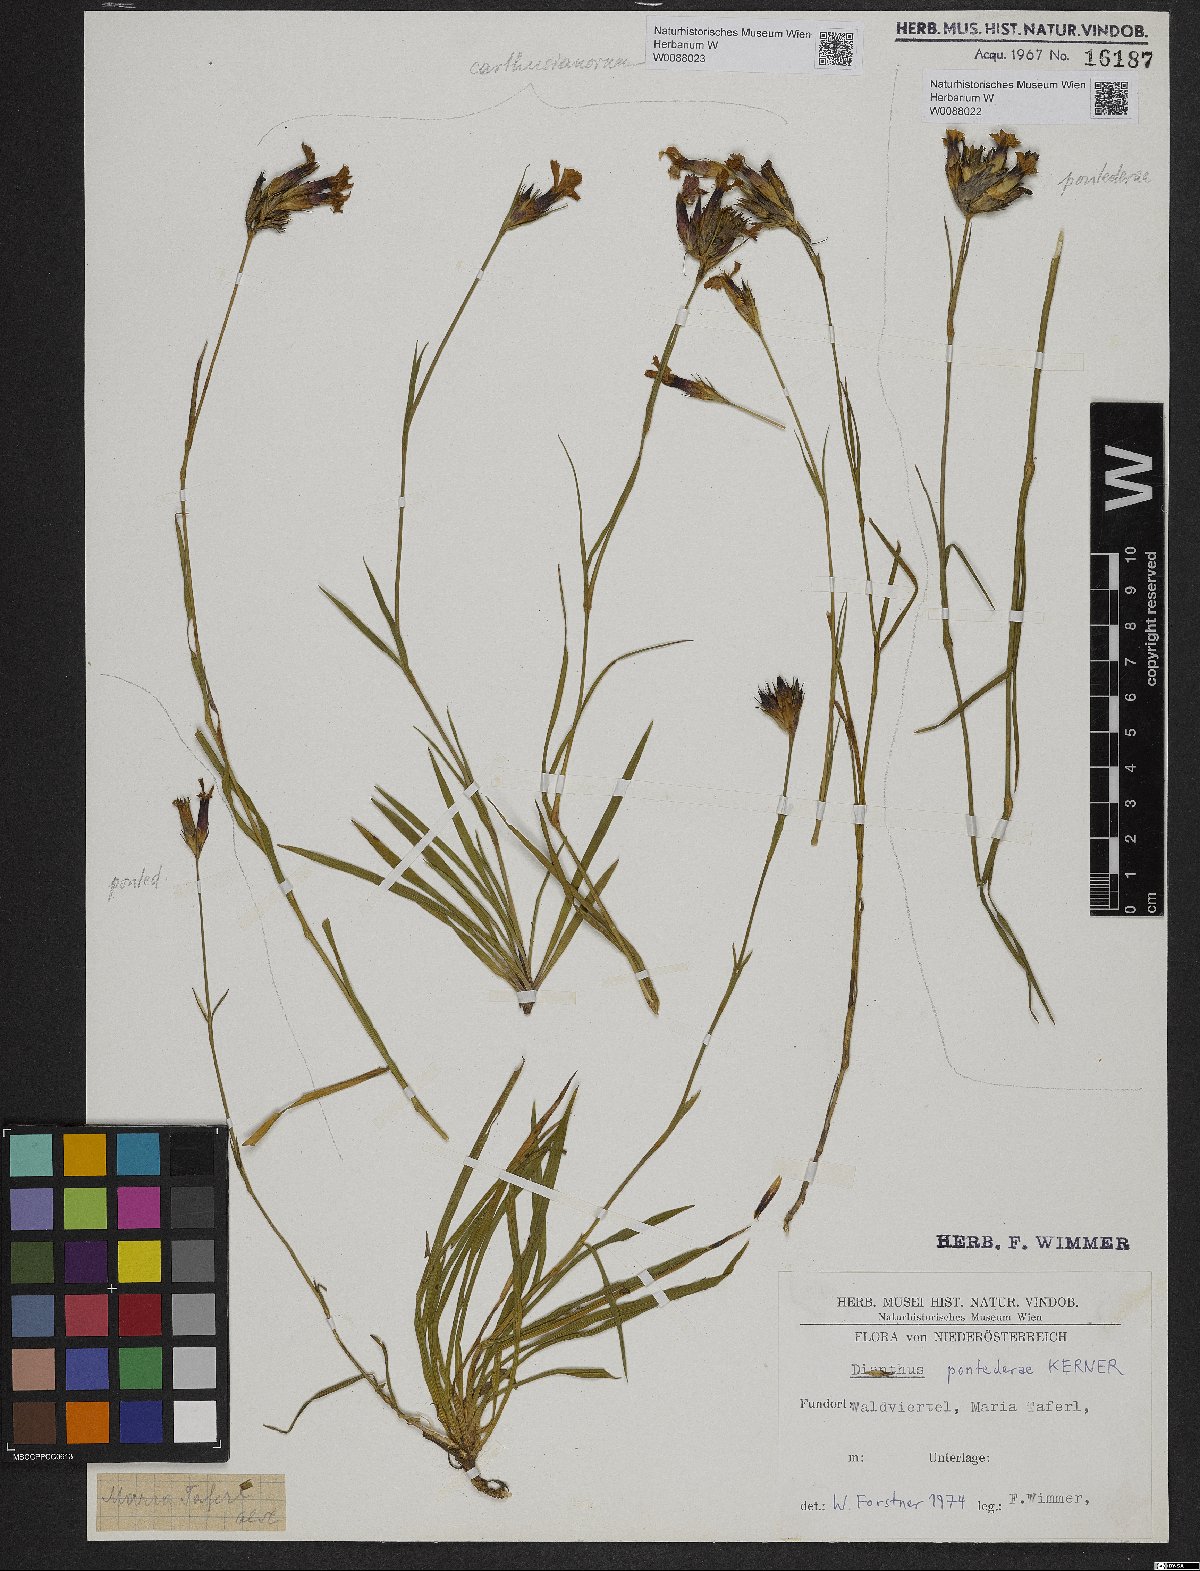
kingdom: Plantae
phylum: Tracheophyta
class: Magnoliopsida
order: Caryophyllales
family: Caryophyllaceae
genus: Dianthus
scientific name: Dianthus pontederae
